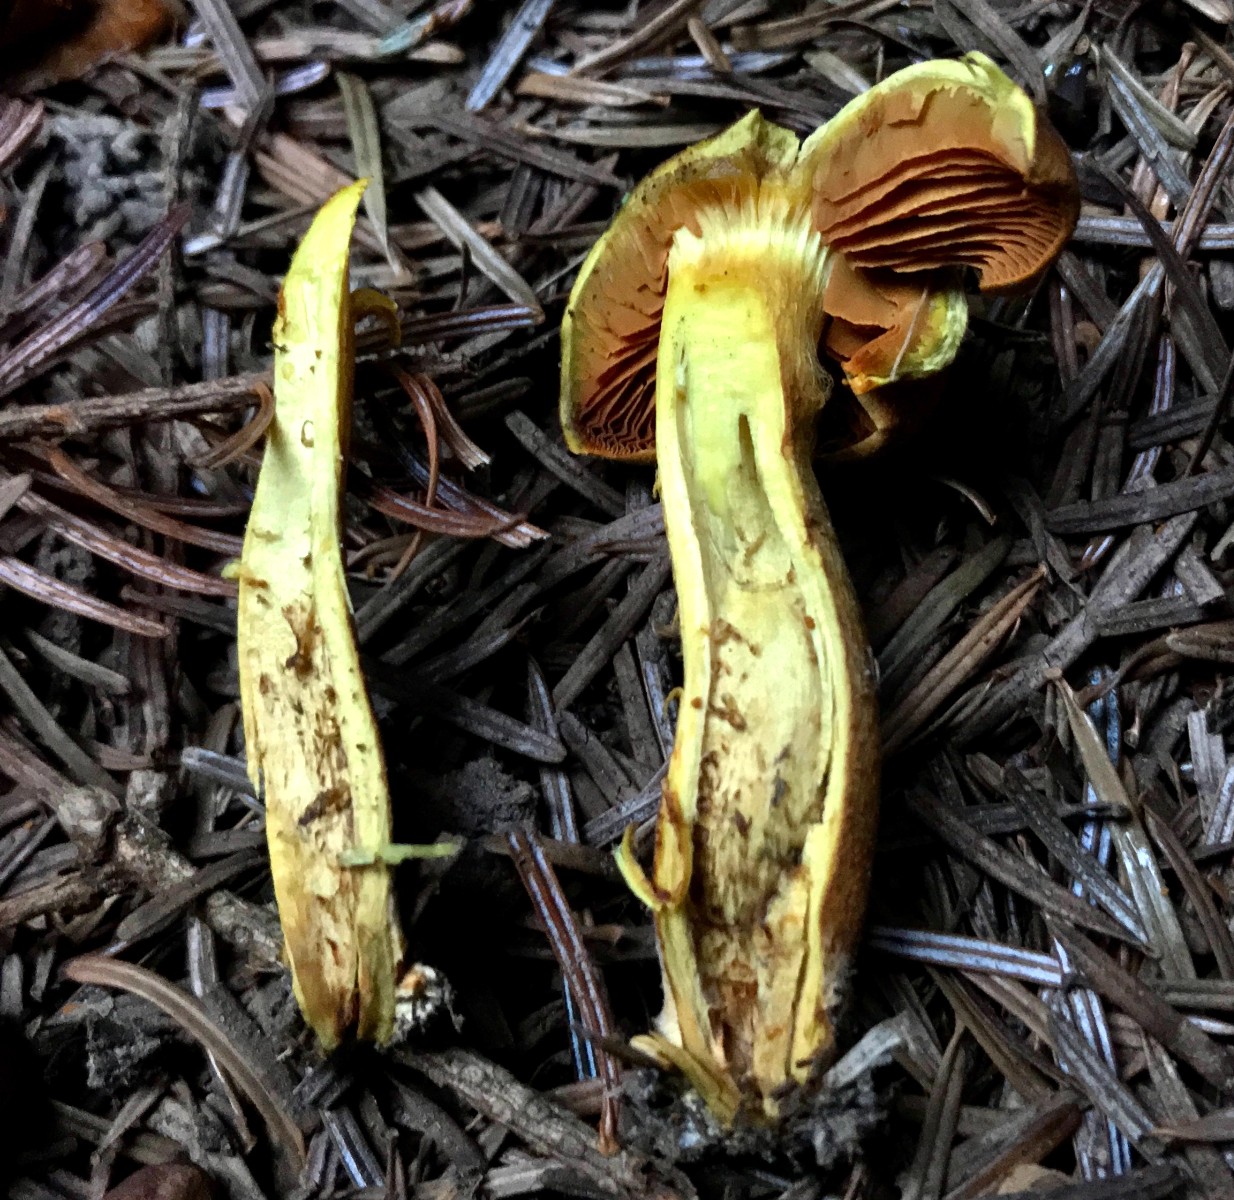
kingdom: Fungi
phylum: Basidiomycota
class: Agaricomycetes
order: Agaricales
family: Cortinariaceae
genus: Cortinarius
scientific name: Cortinarius malicorius
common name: grønkødet slørhat
